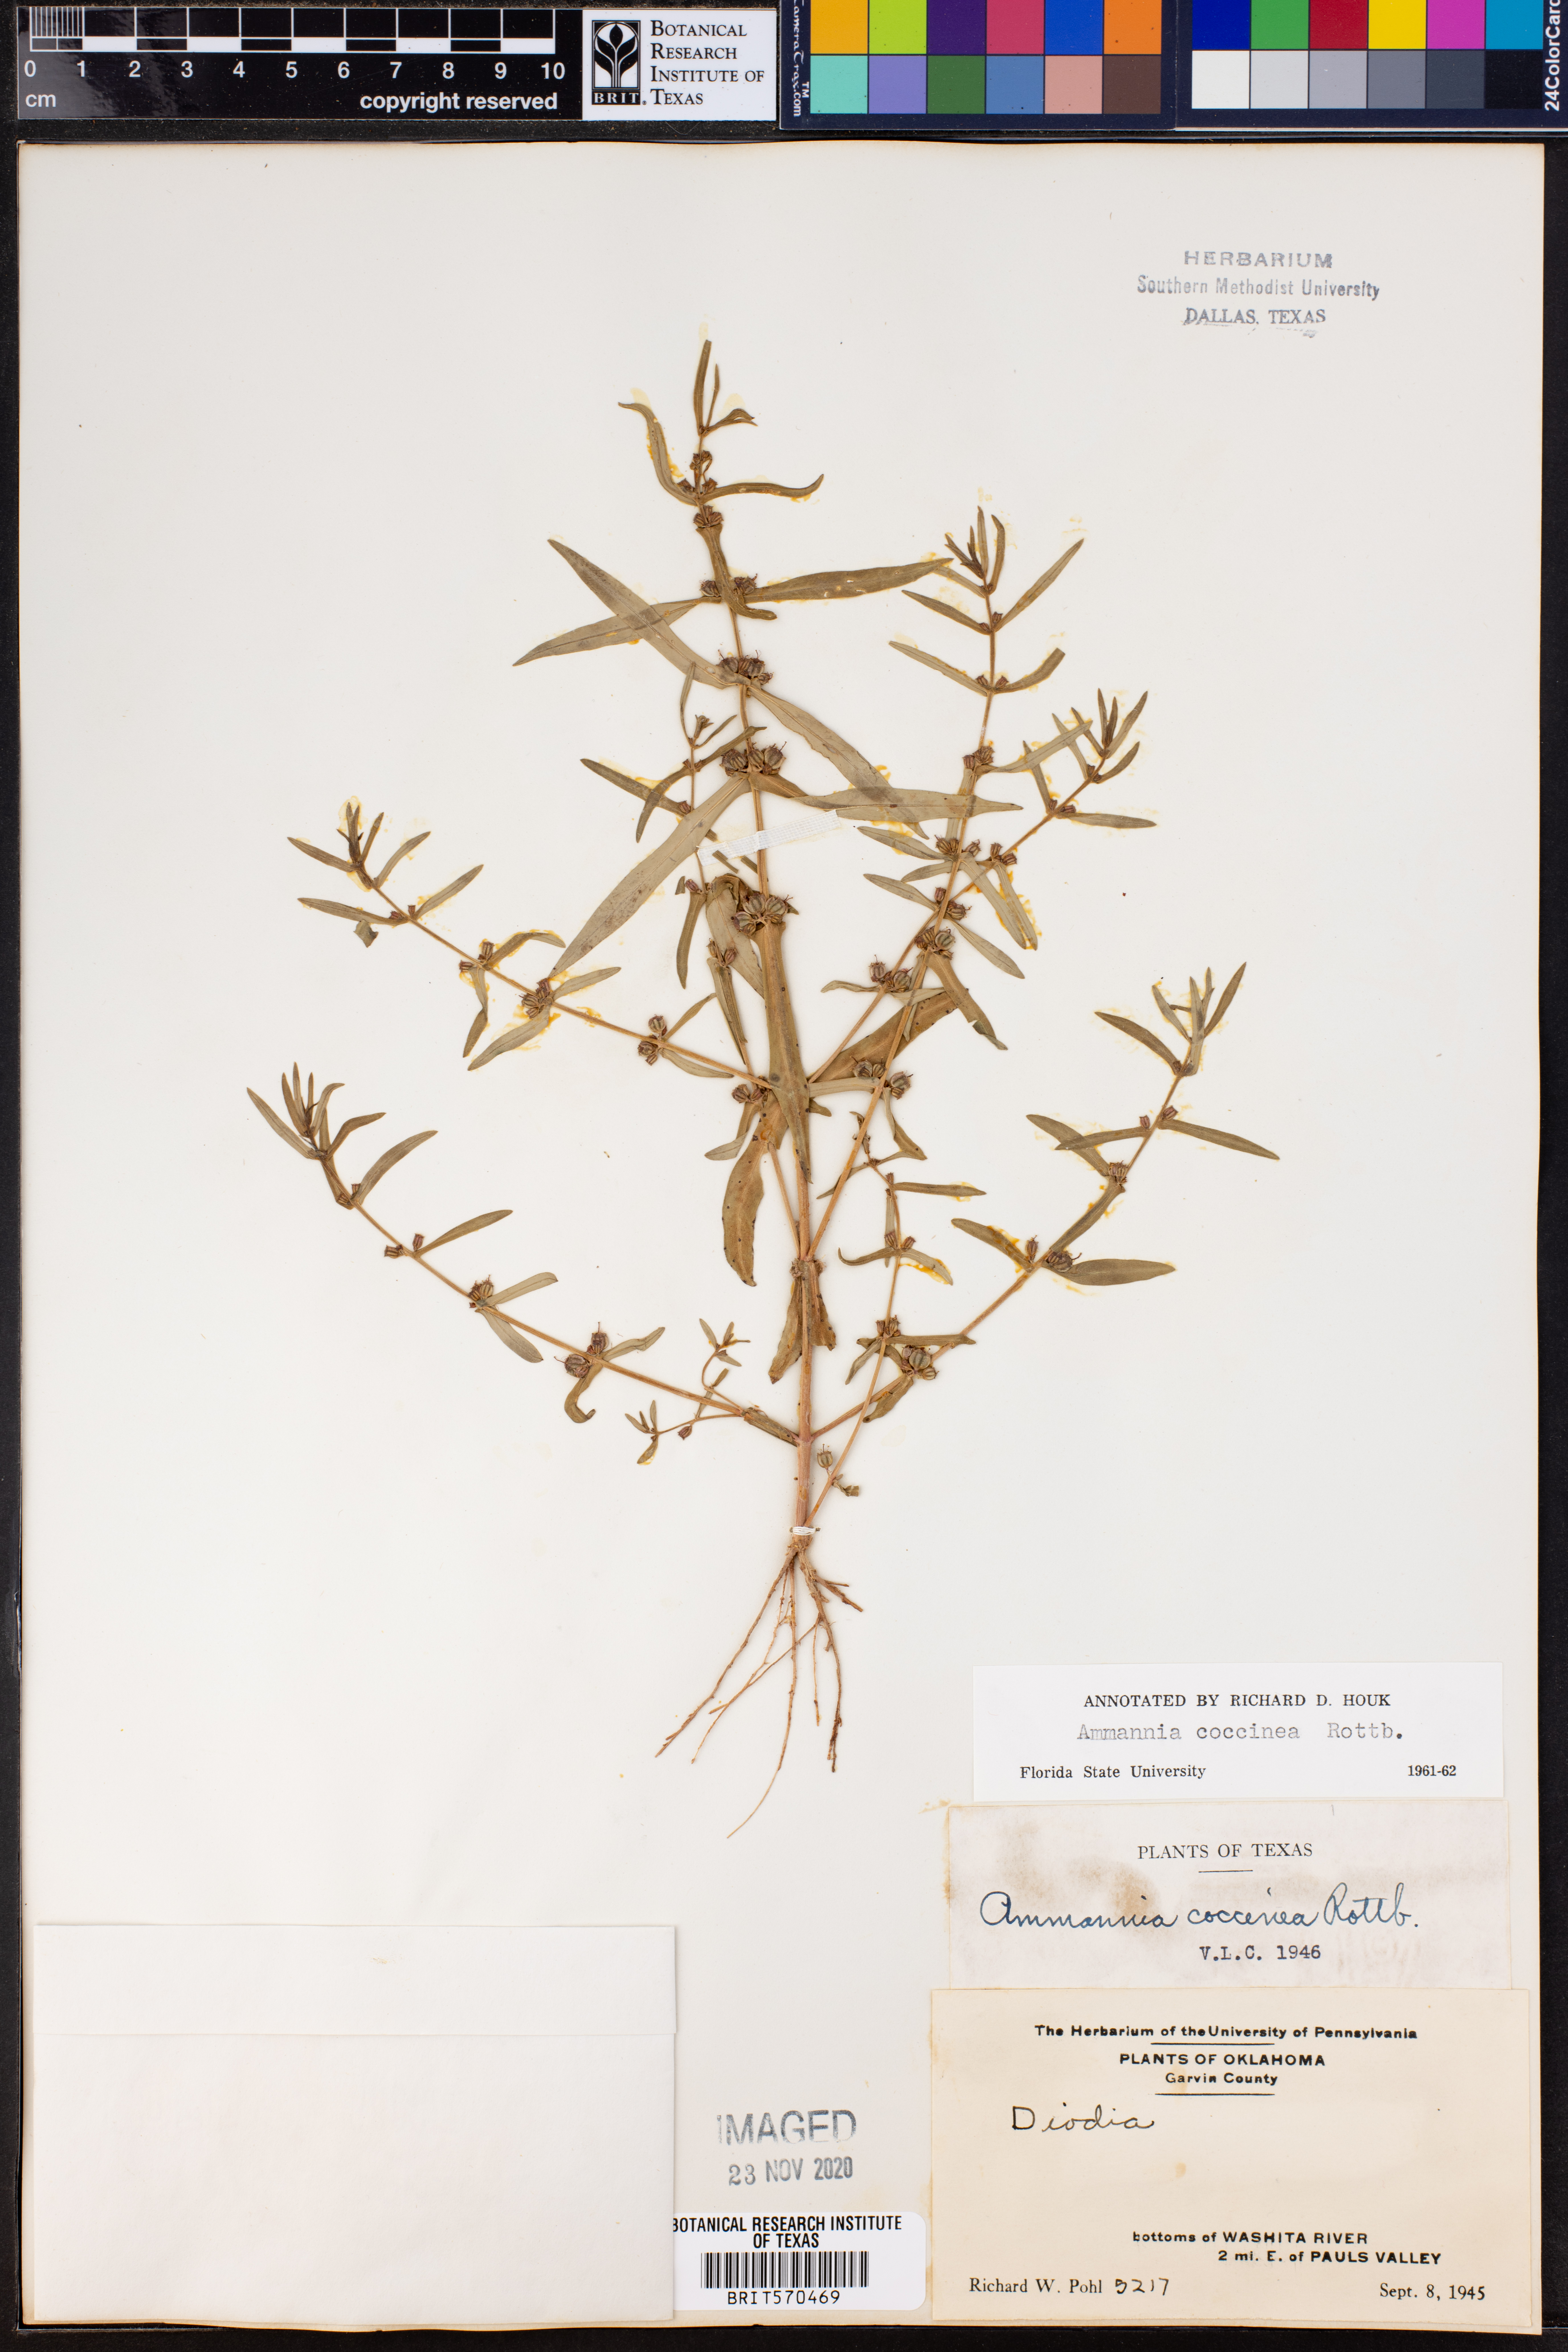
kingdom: Plantae
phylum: Tracheophyta
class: Magnoliopsida
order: Myrtales
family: Lythraceae
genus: Ammannia
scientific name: Ammannia coccinea
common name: Valley redstem
